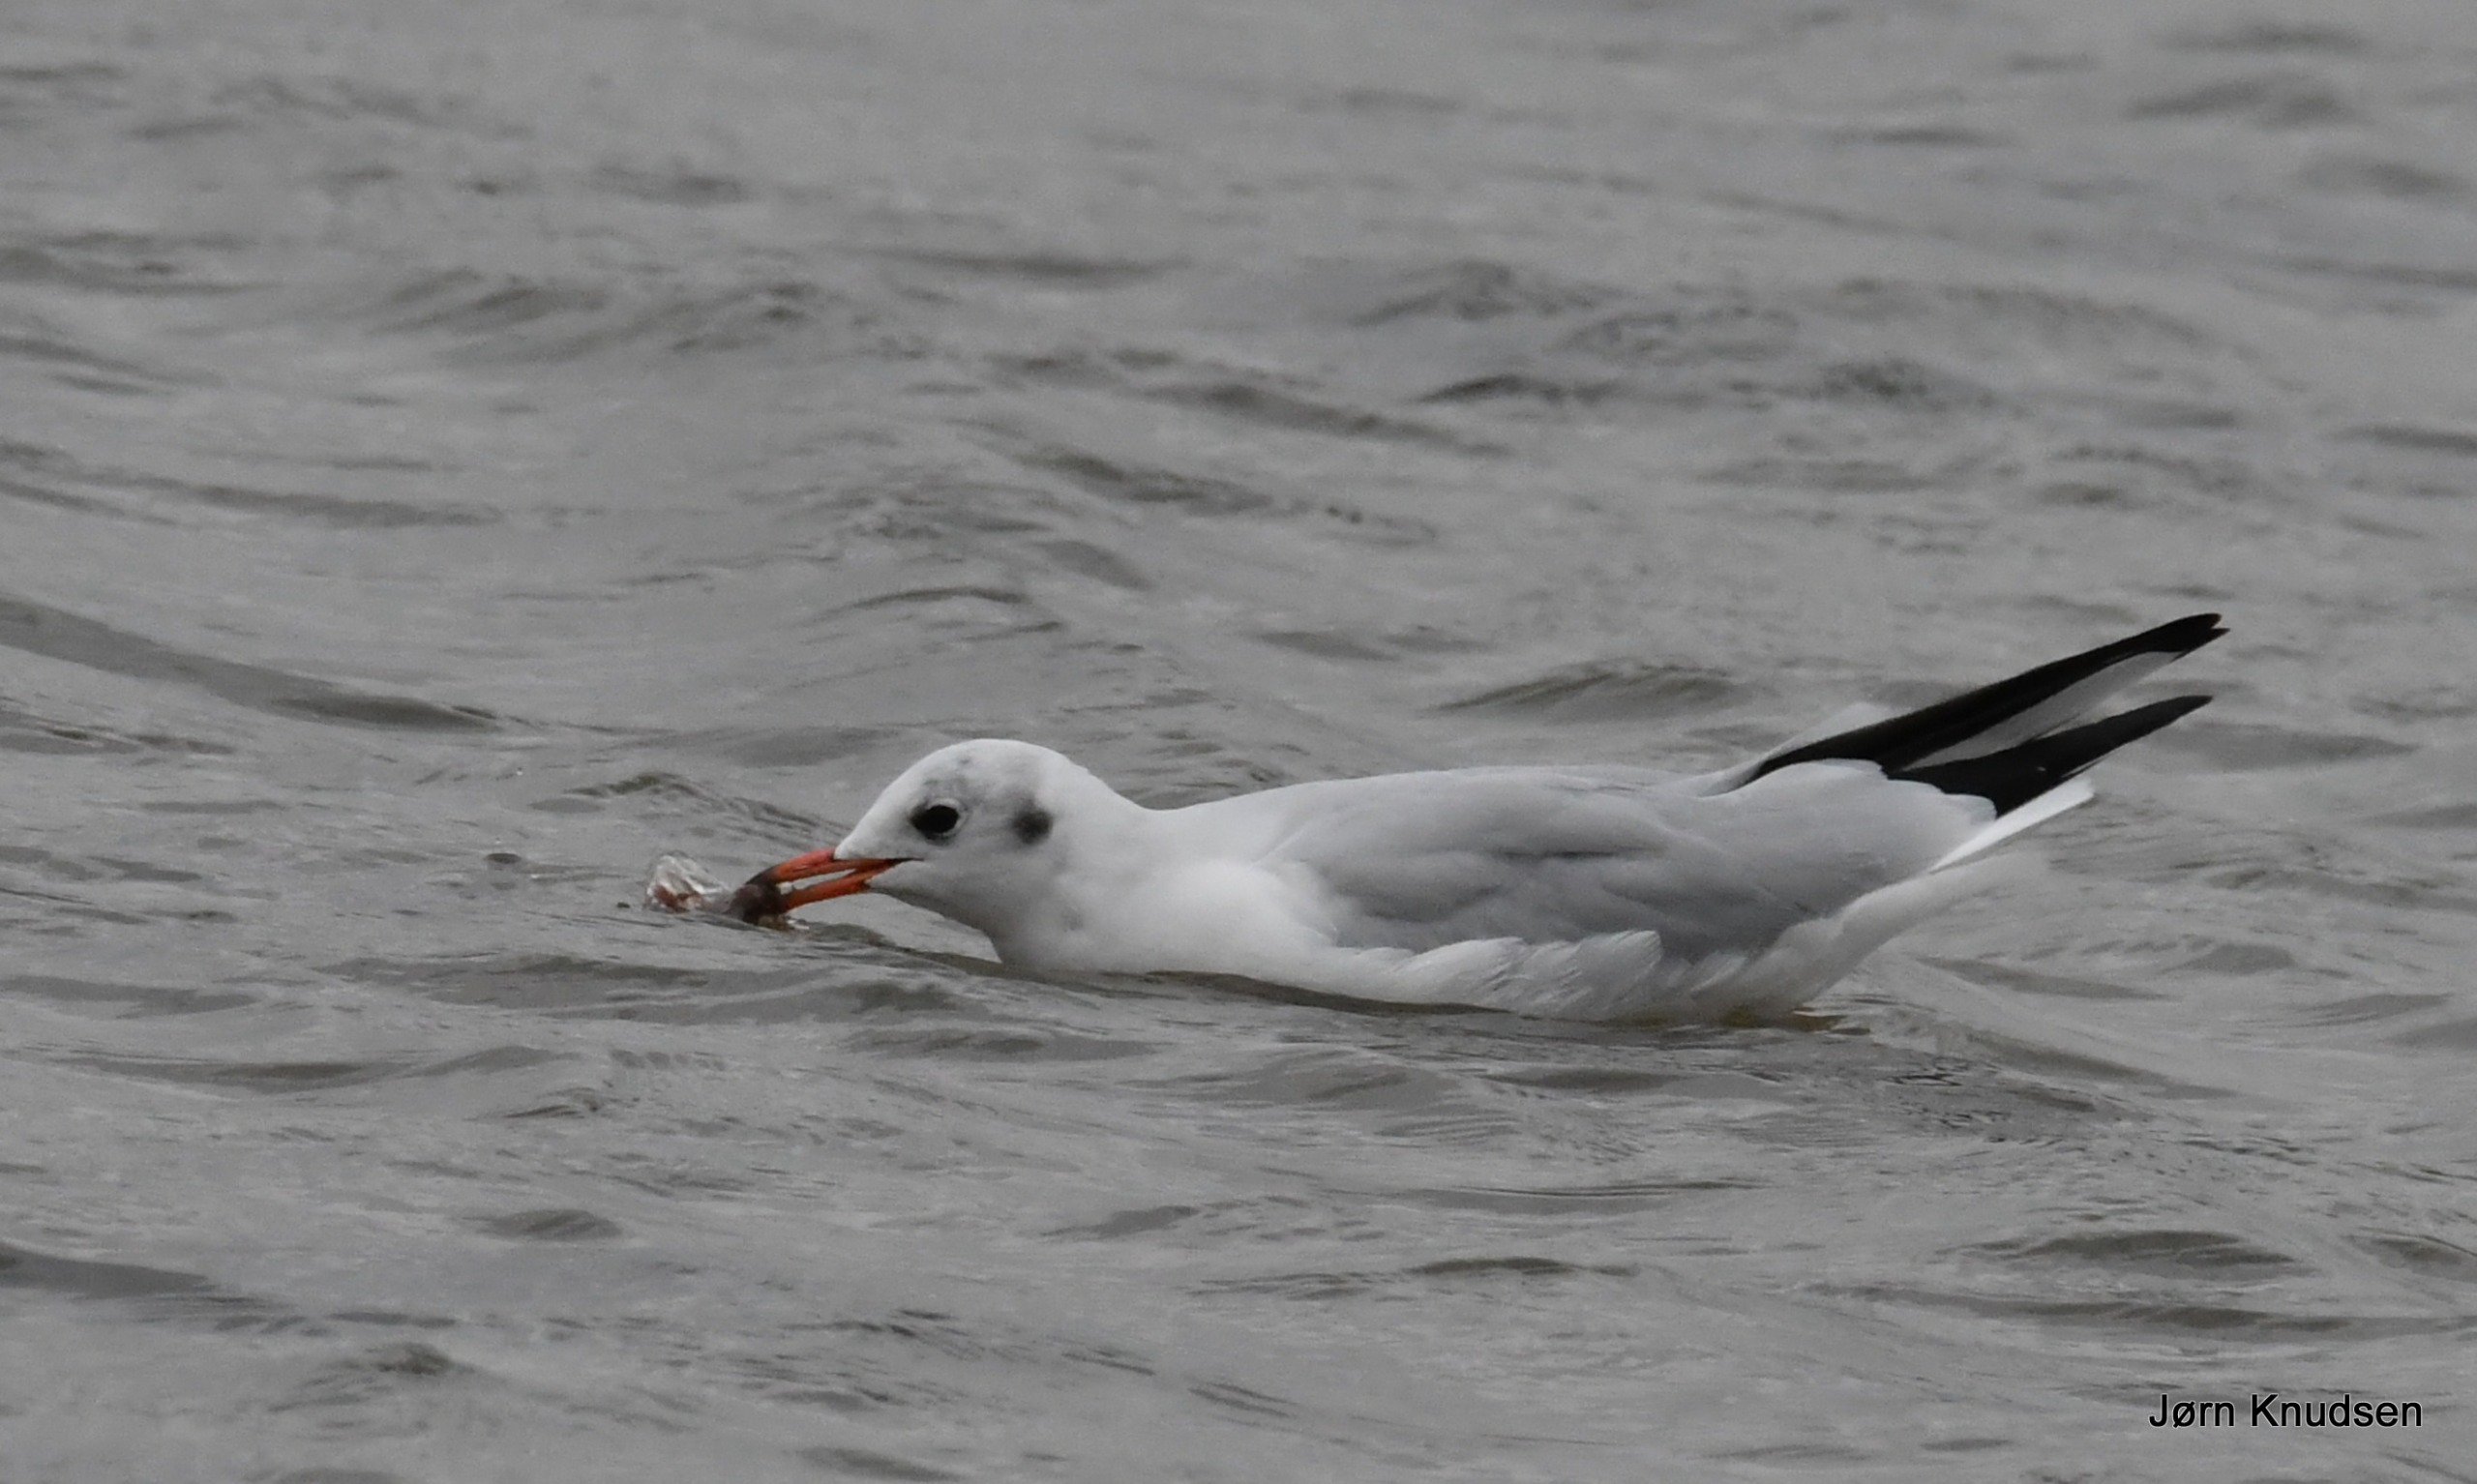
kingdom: Animalia
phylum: Chordata
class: Aves
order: Charadriiformes
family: Laridae
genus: Chroicocephalus
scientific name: Chroicocephalus ridibundus
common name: Hættemåge
